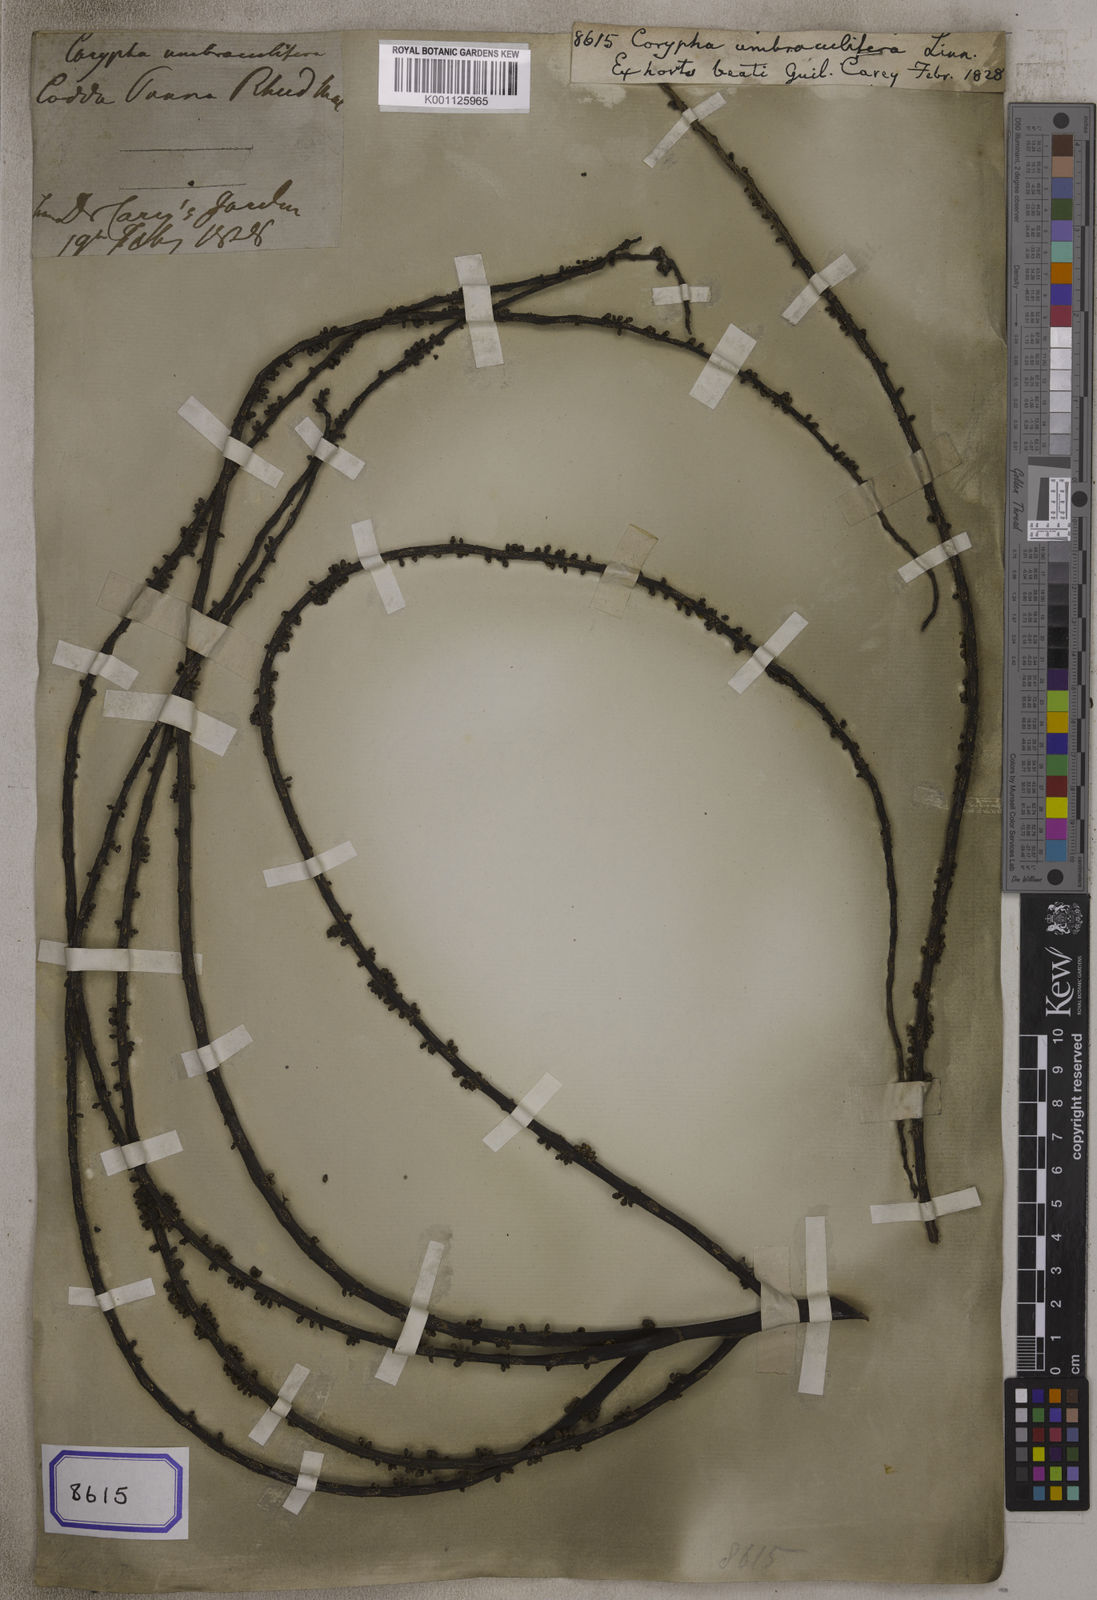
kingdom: Plantae
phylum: Tracheophyta
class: Liliopsida
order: Arecales
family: Arecaceae
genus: Corypha
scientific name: Corypha umbraculifera
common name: Talipot palm
